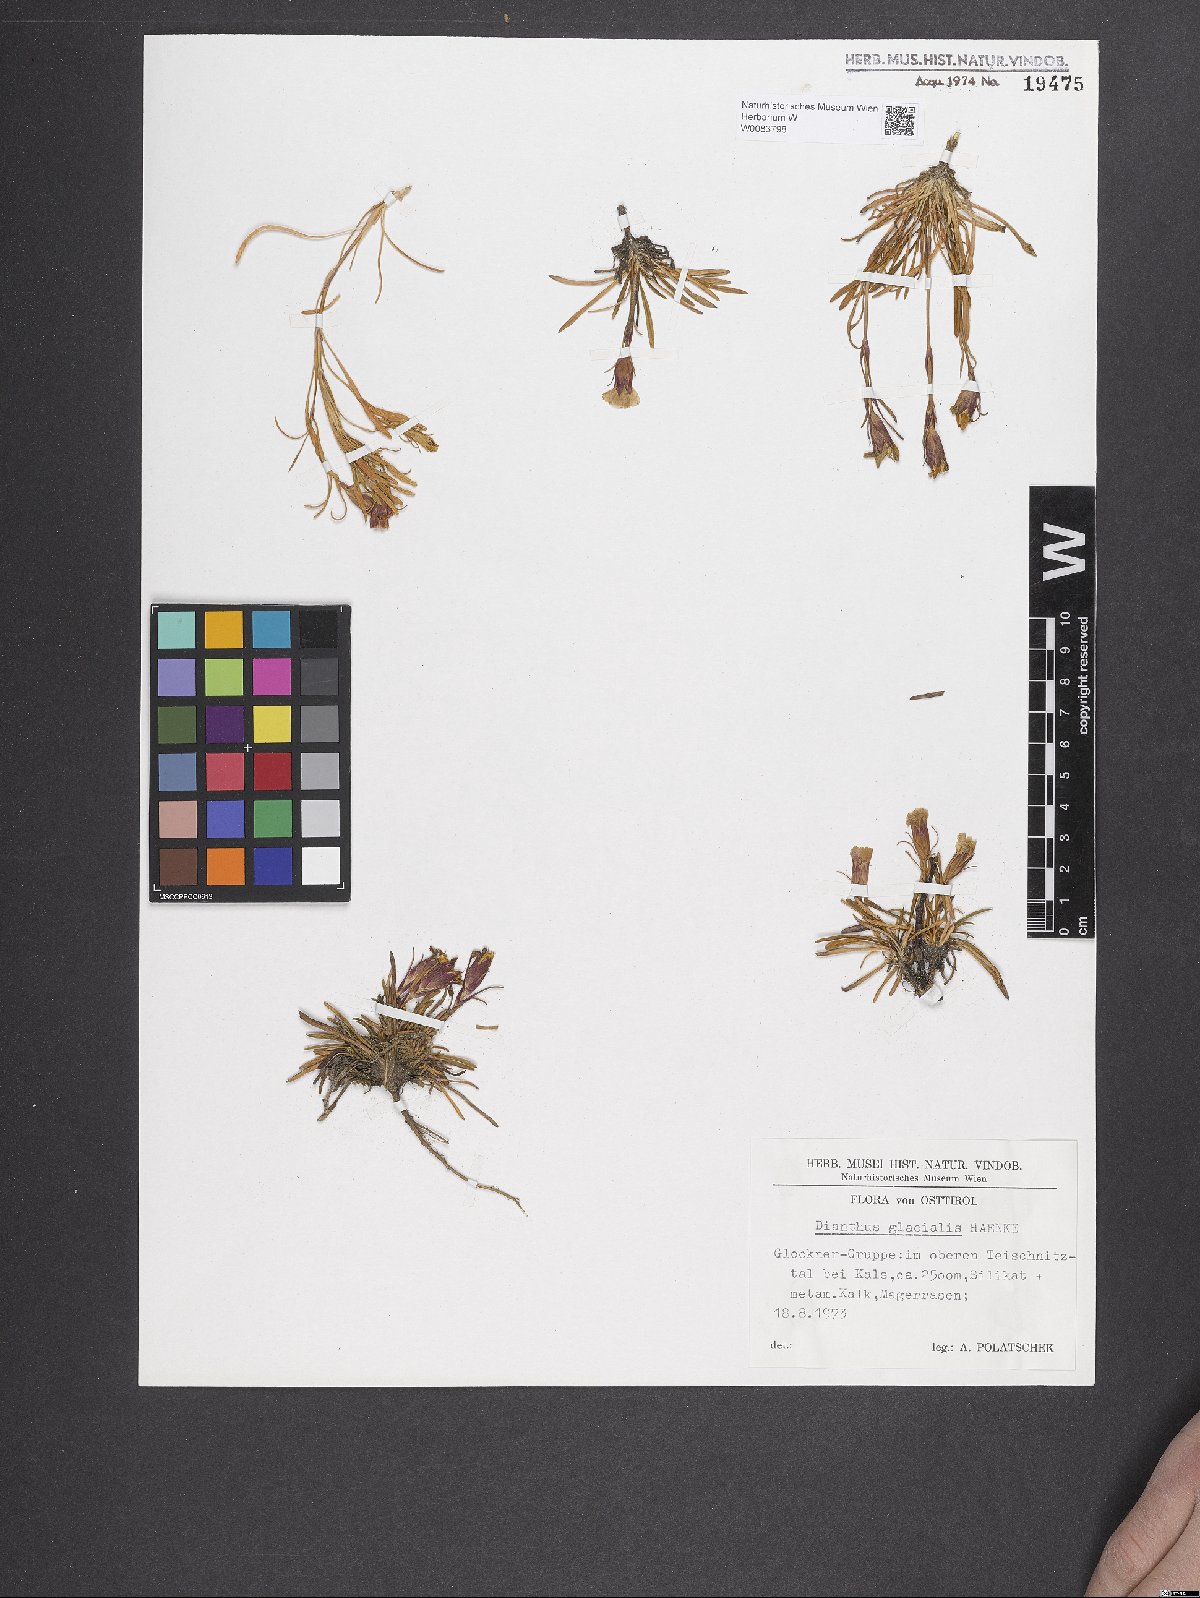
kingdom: Plantae
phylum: Tracheophyta
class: Magnoliopsida
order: Caryophyllales
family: Caryophyllaceae
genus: Dianthus
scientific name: Dianthus glacialis
